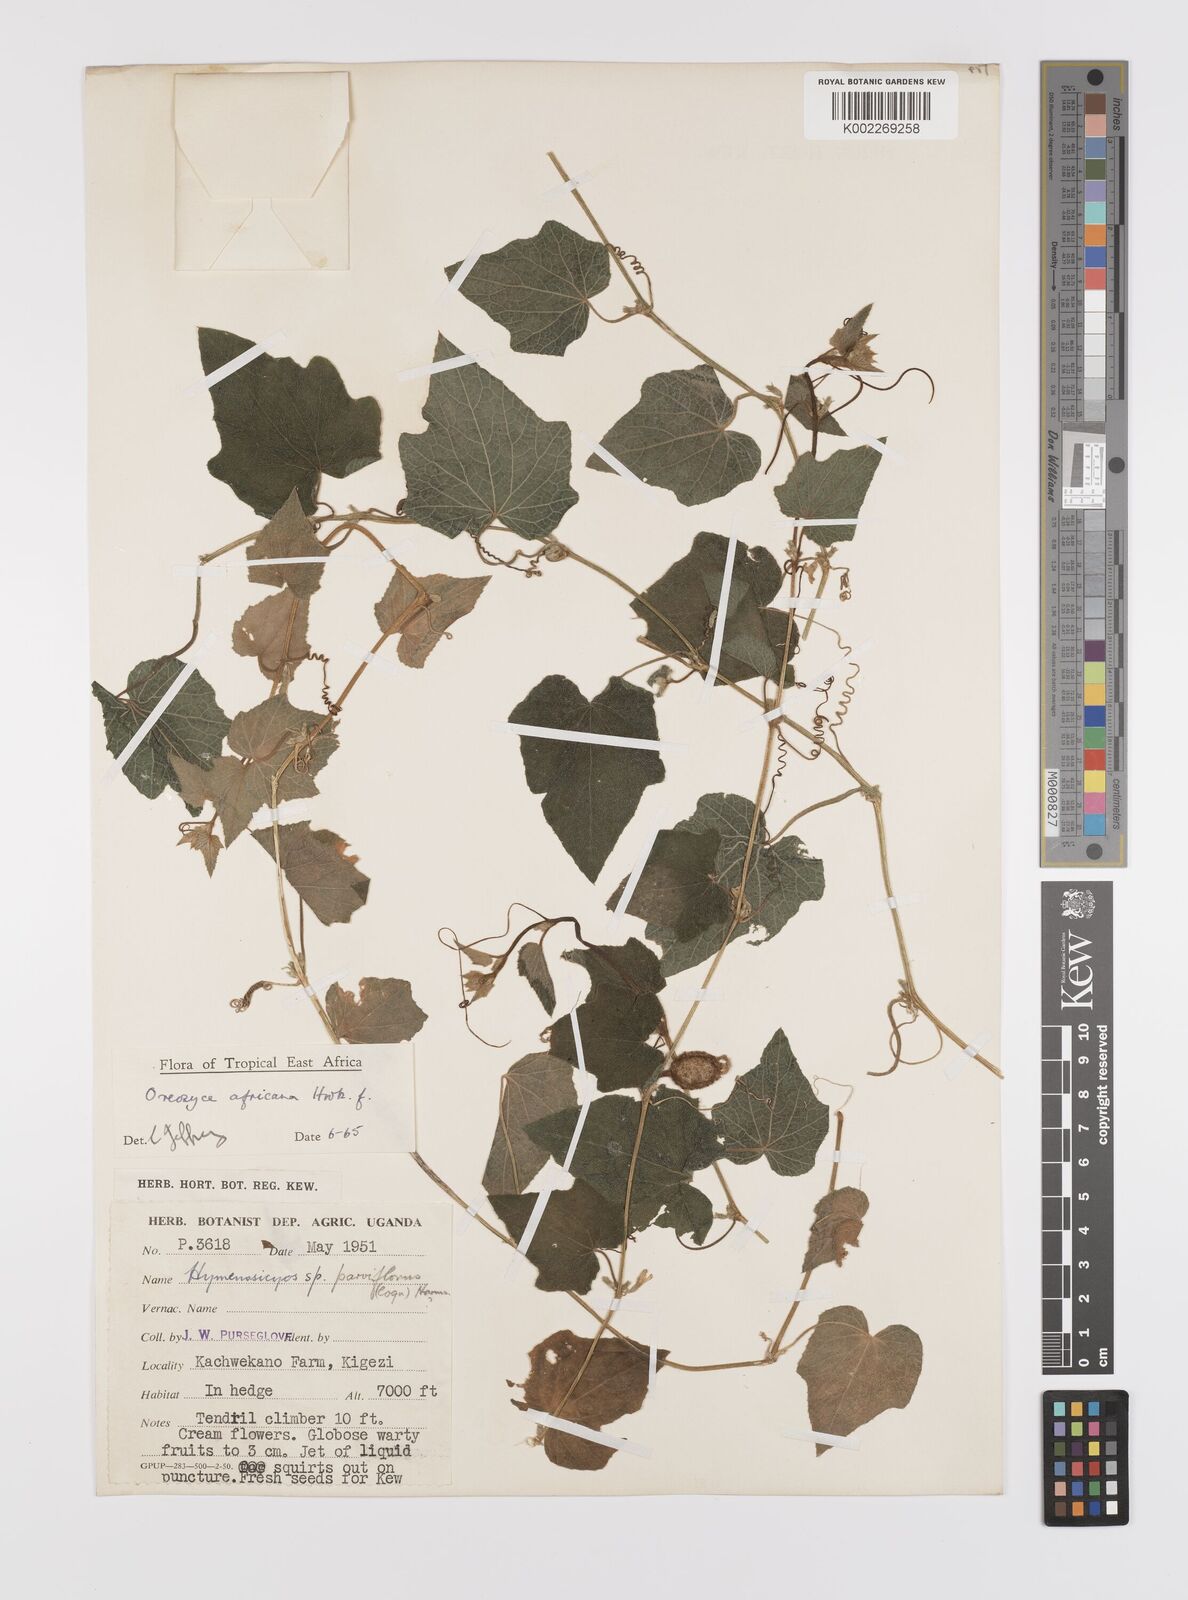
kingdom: Plantae
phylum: Tracheophyta
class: Magnoliopsida
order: Cucurbitales
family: Cucurbitaceae
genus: Cucumis
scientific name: Cucumis oreosyce
